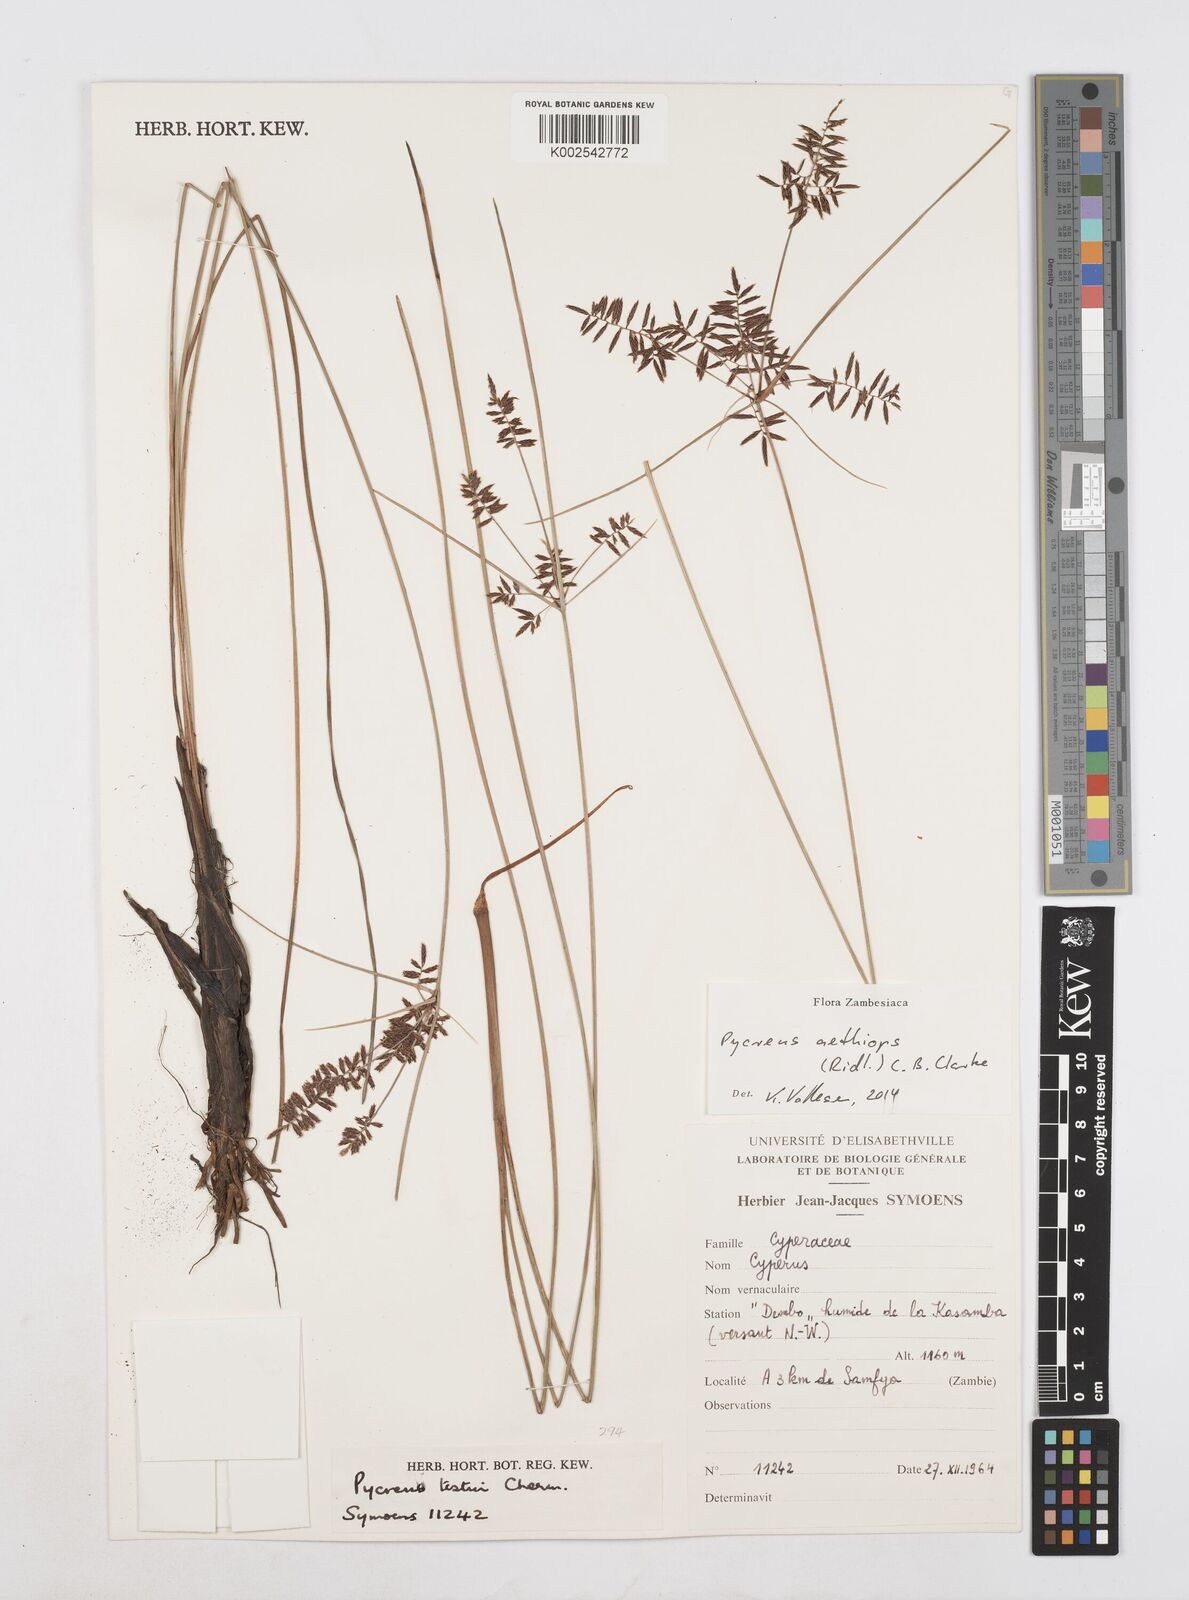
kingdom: Plantae
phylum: Tracheophyta
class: Liliopsida
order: Poales
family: Cyperaceae
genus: Cyperus
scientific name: Cyperus aethiops
